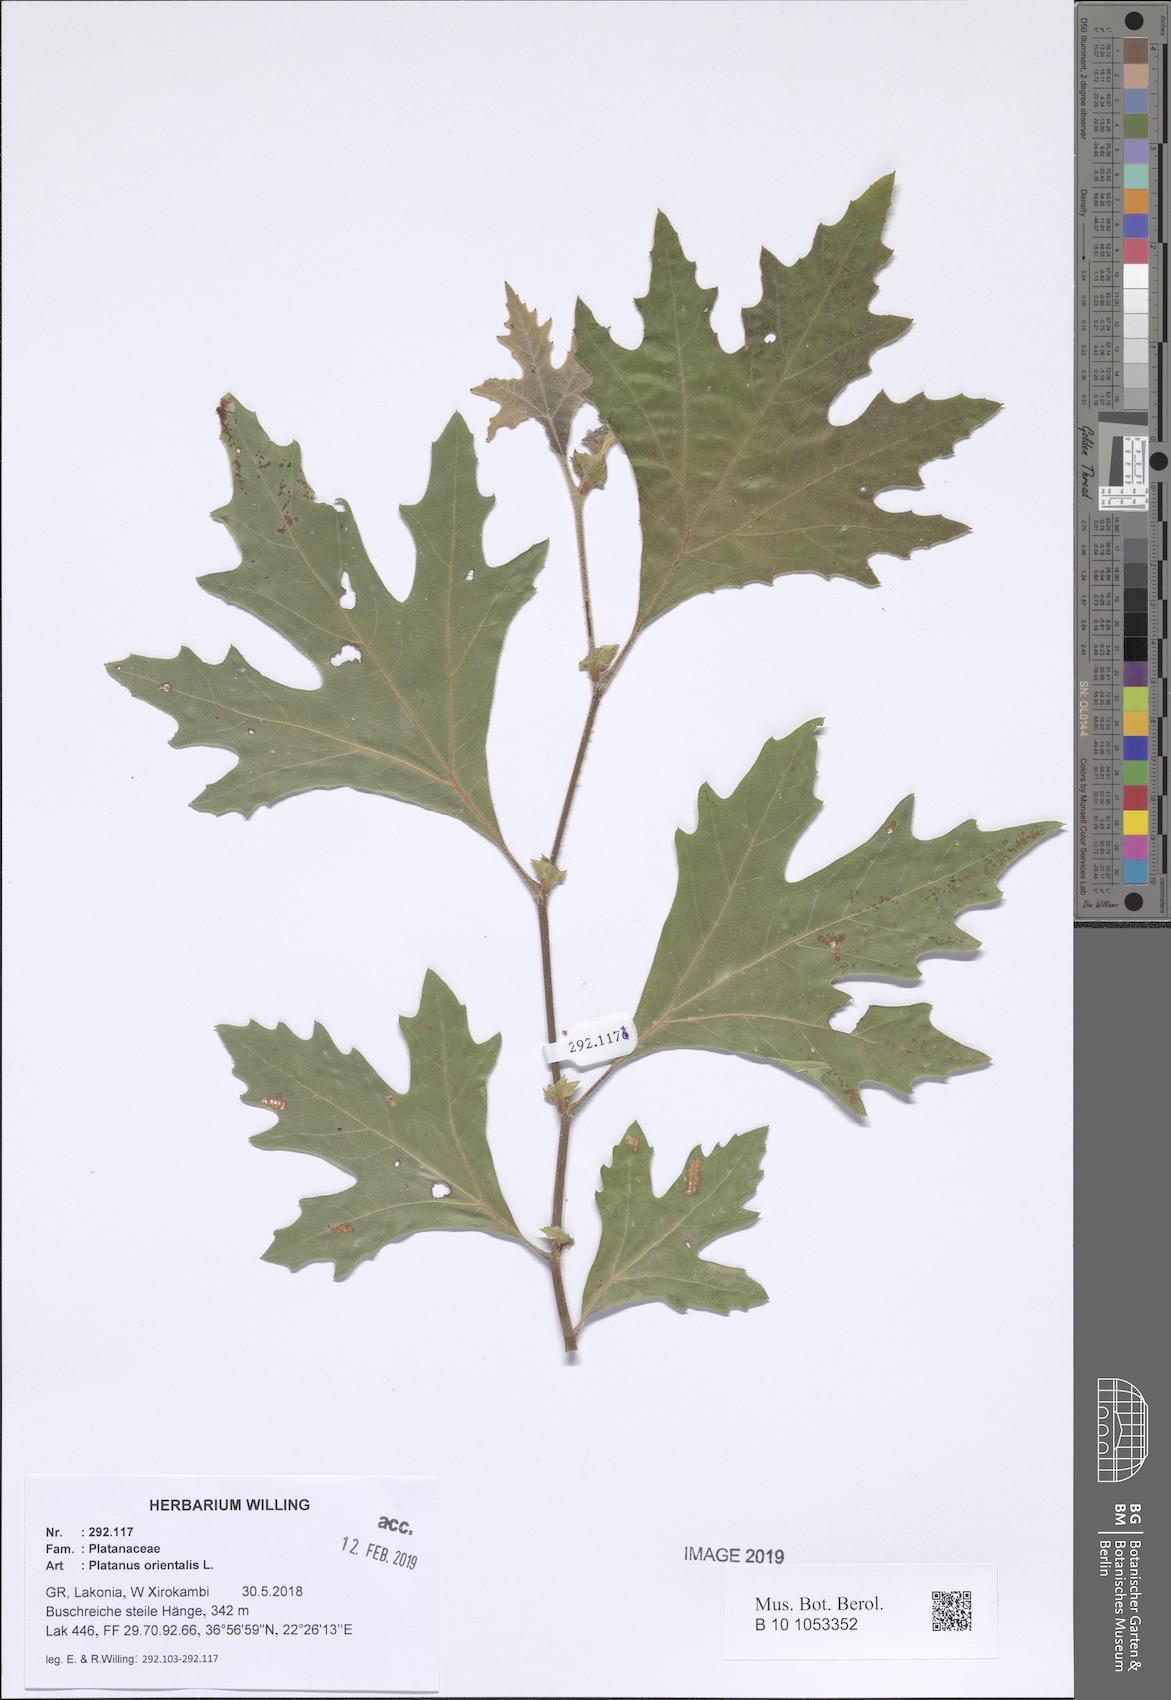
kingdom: Plantae
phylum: Tracheophyta
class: Magnoliopsida
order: Proteales
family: Platanaceae
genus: Platanus
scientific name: Platanus orientalis
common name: Oriental plane
